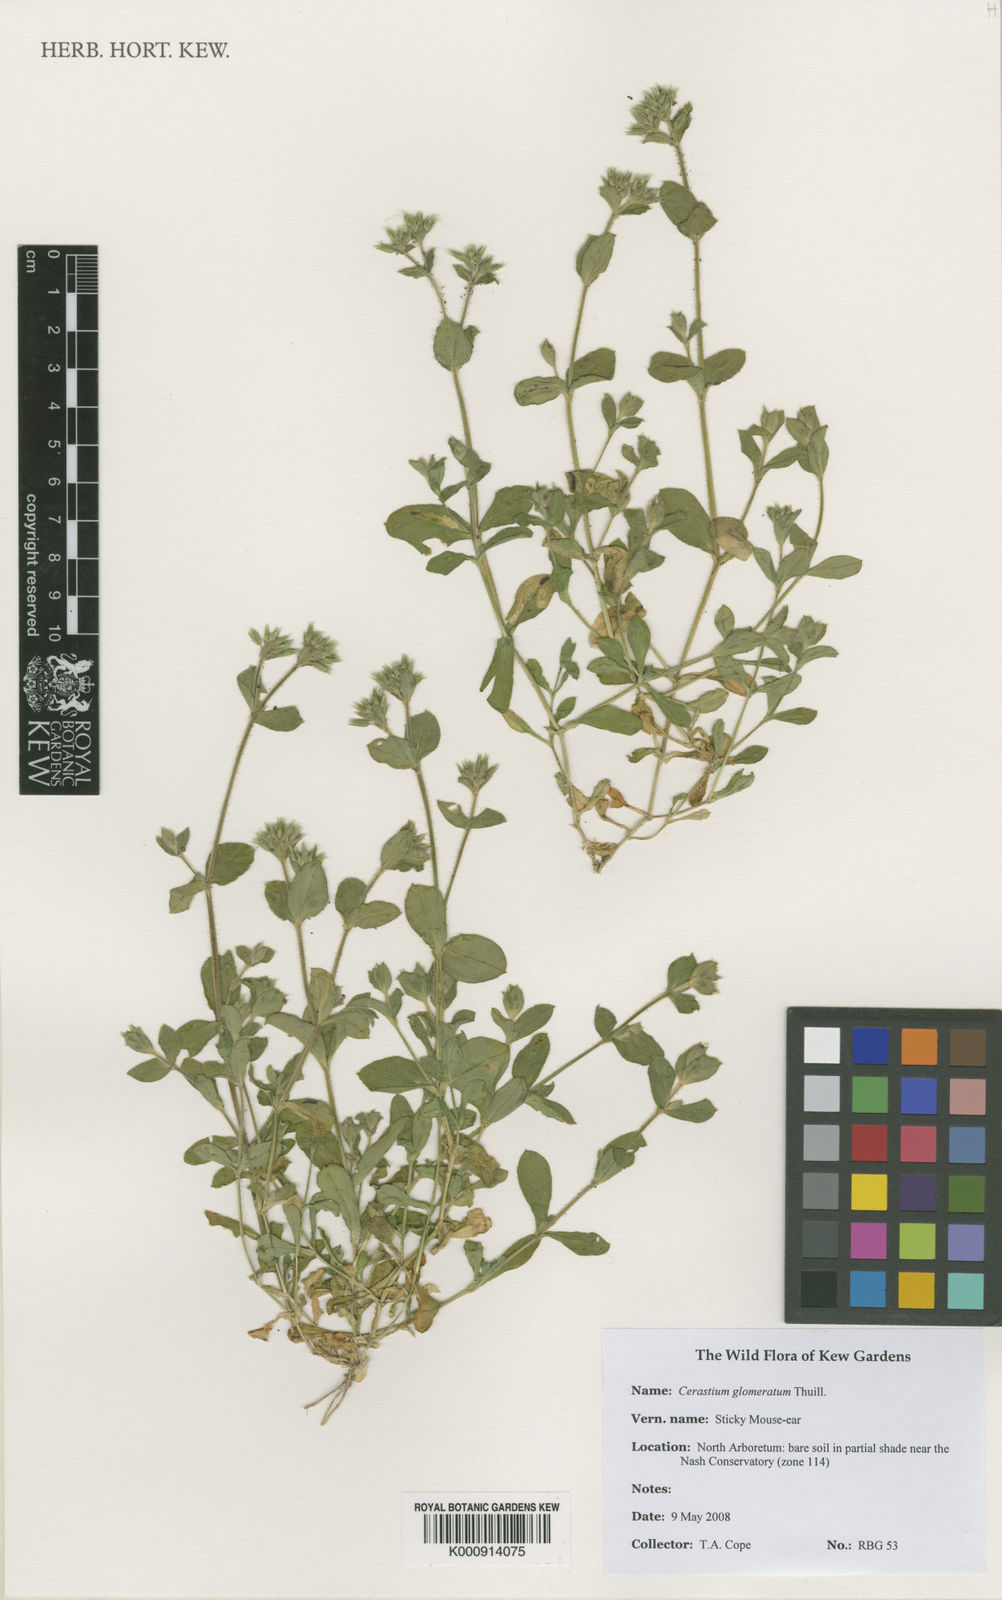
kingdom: Plantae
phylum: Tracheophyta
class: Magnoliopsida
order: Caryophyllales
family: Caryophyllaceae
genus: Cerastium
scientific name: Cerastium glomeratum
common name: Sticky chickweed
